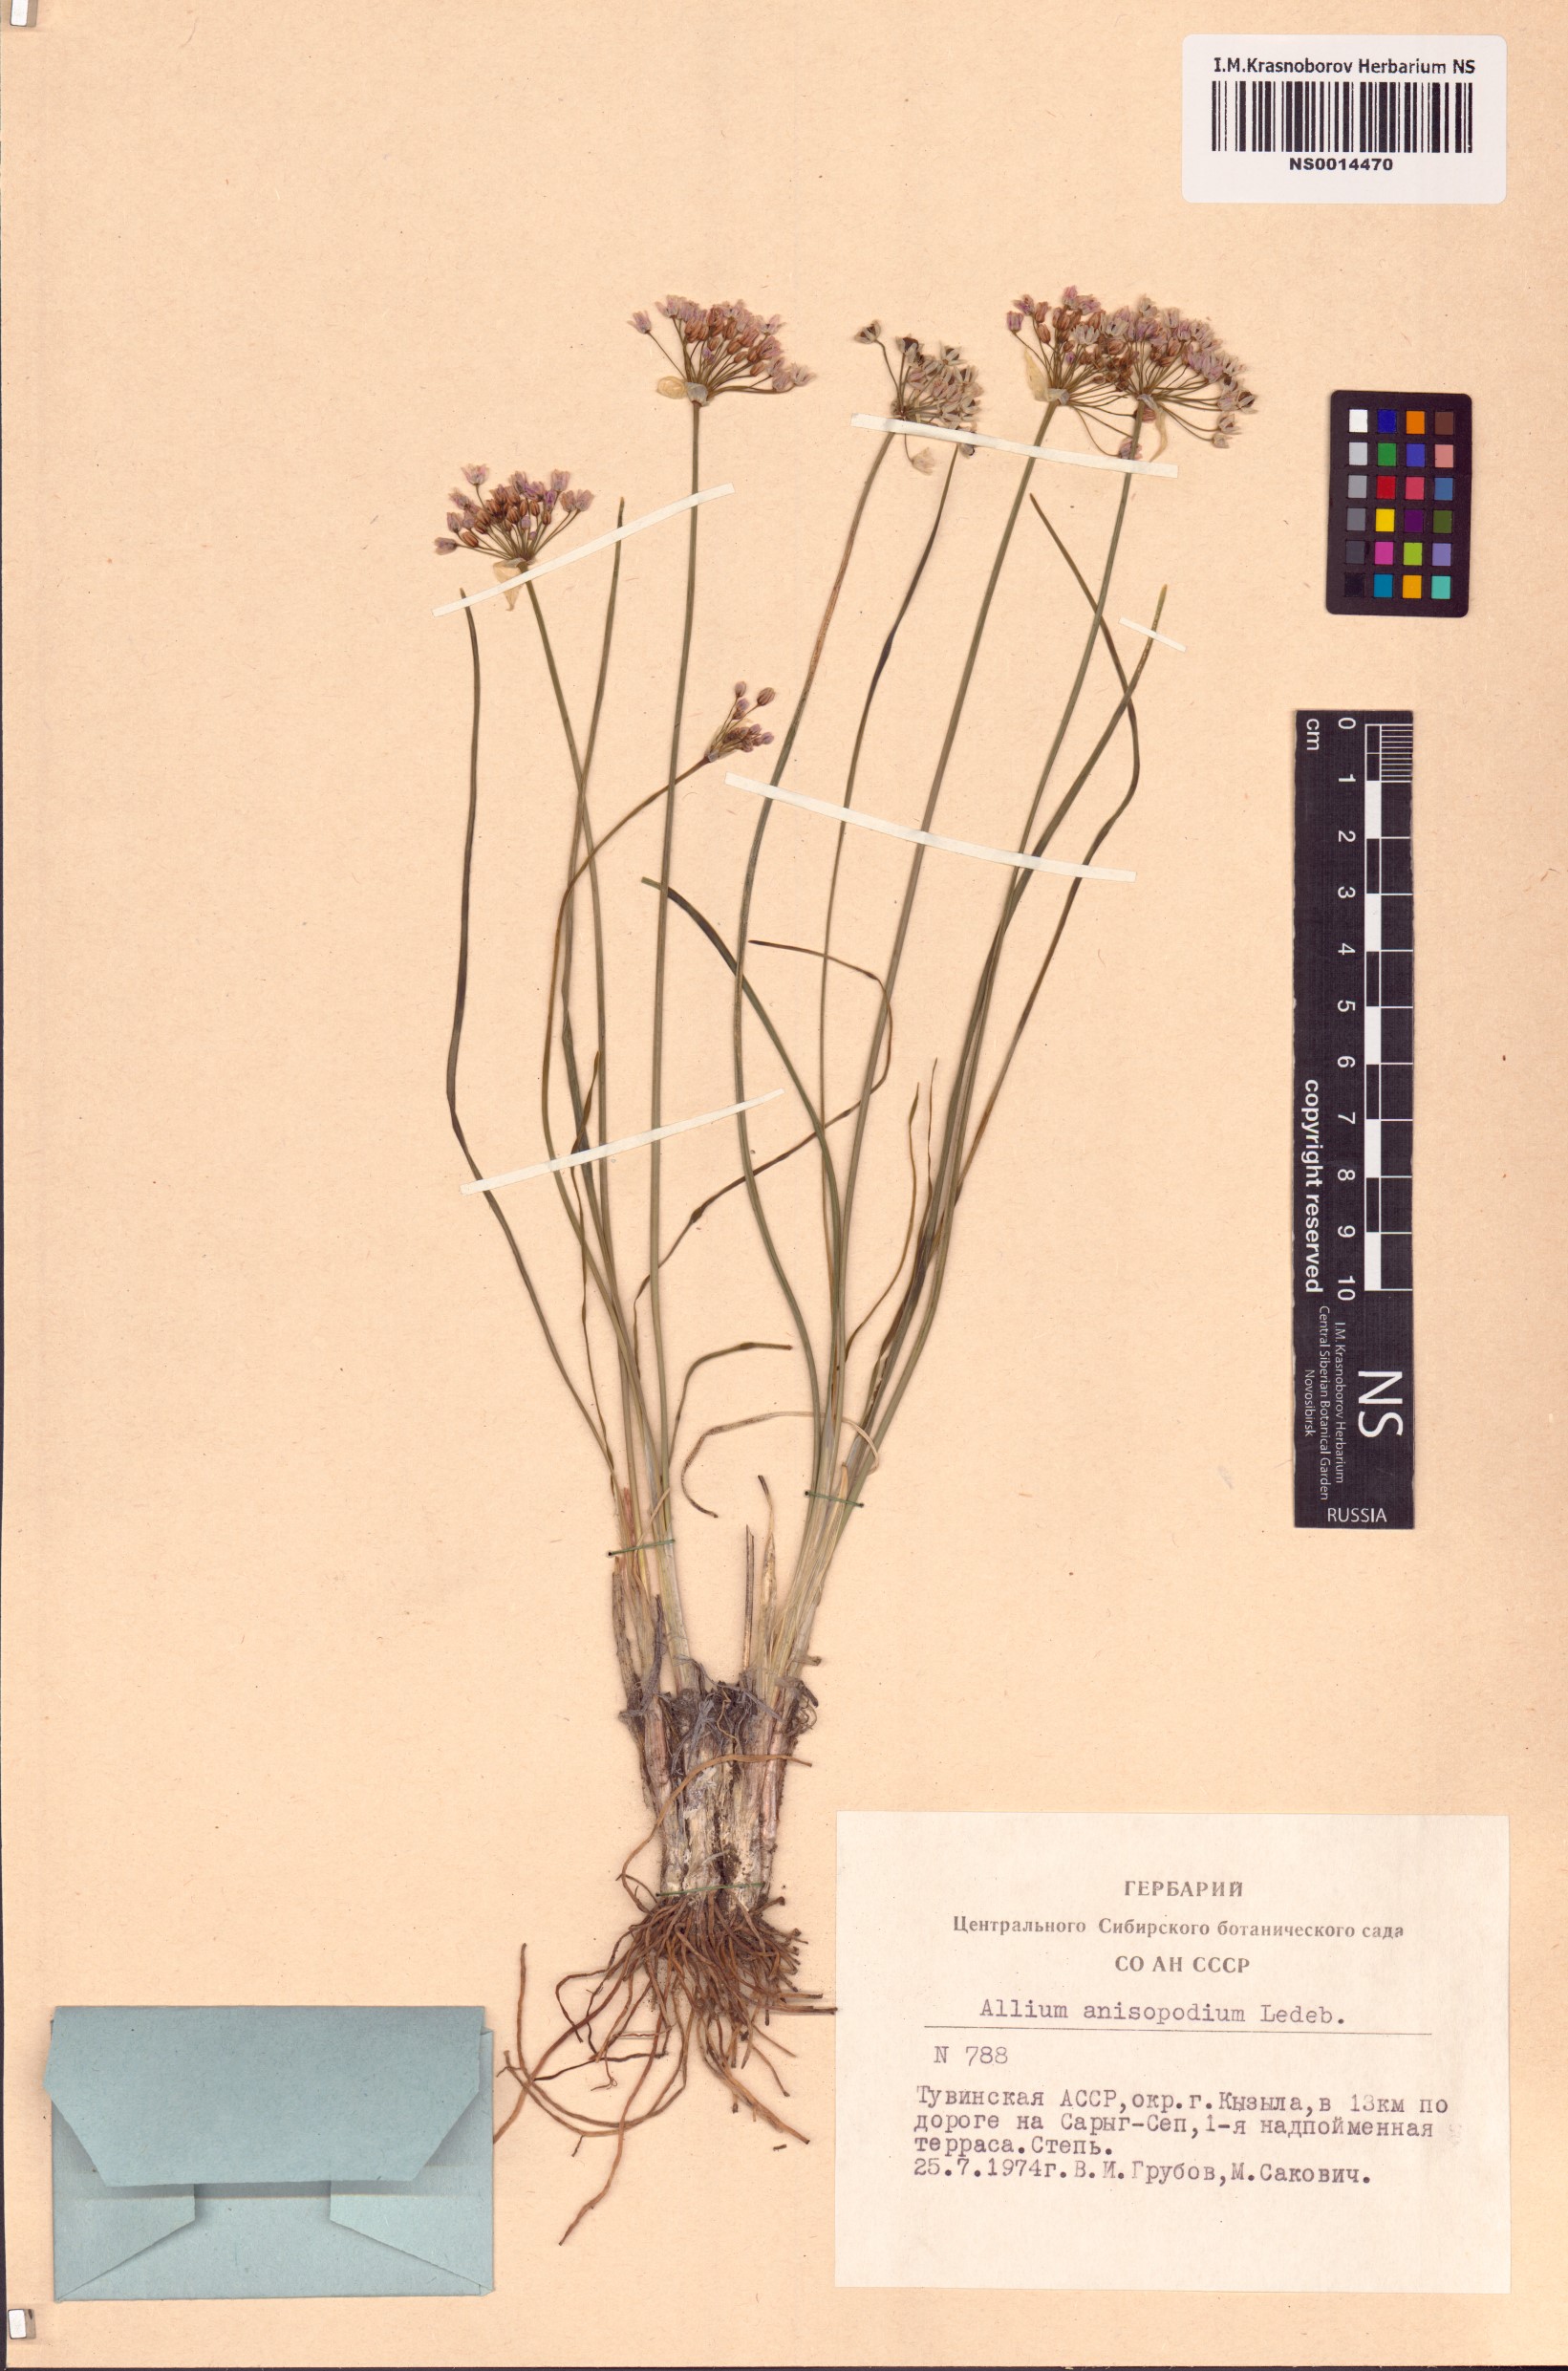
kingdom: Plantae
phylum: Tracheophyta
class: Liliopsida
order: Asparagales
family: Amaryllidaceae
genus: Allium
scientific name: Allium anisopodium
